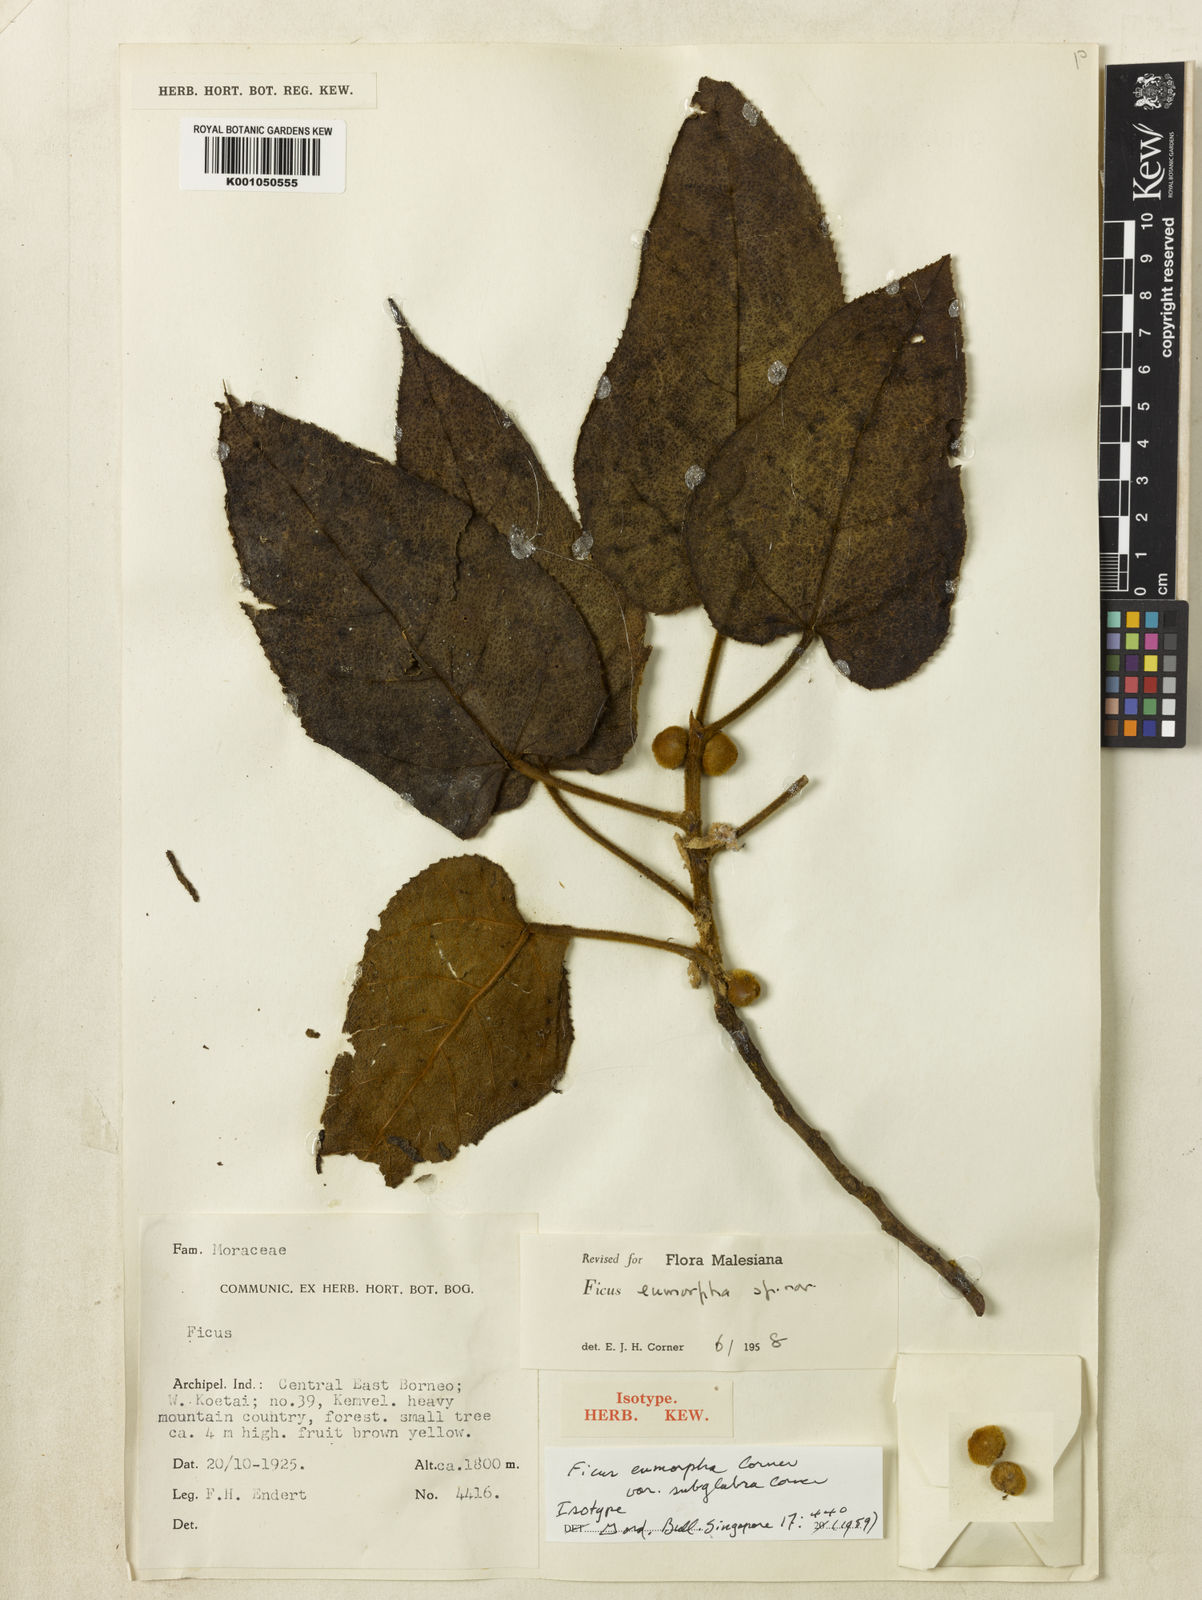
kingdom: Plantae
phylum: Tracheophyta
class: Magnoliopsida
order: Rosales
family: Moraceae
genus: Ficus
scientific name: Ficus subglabritepala
